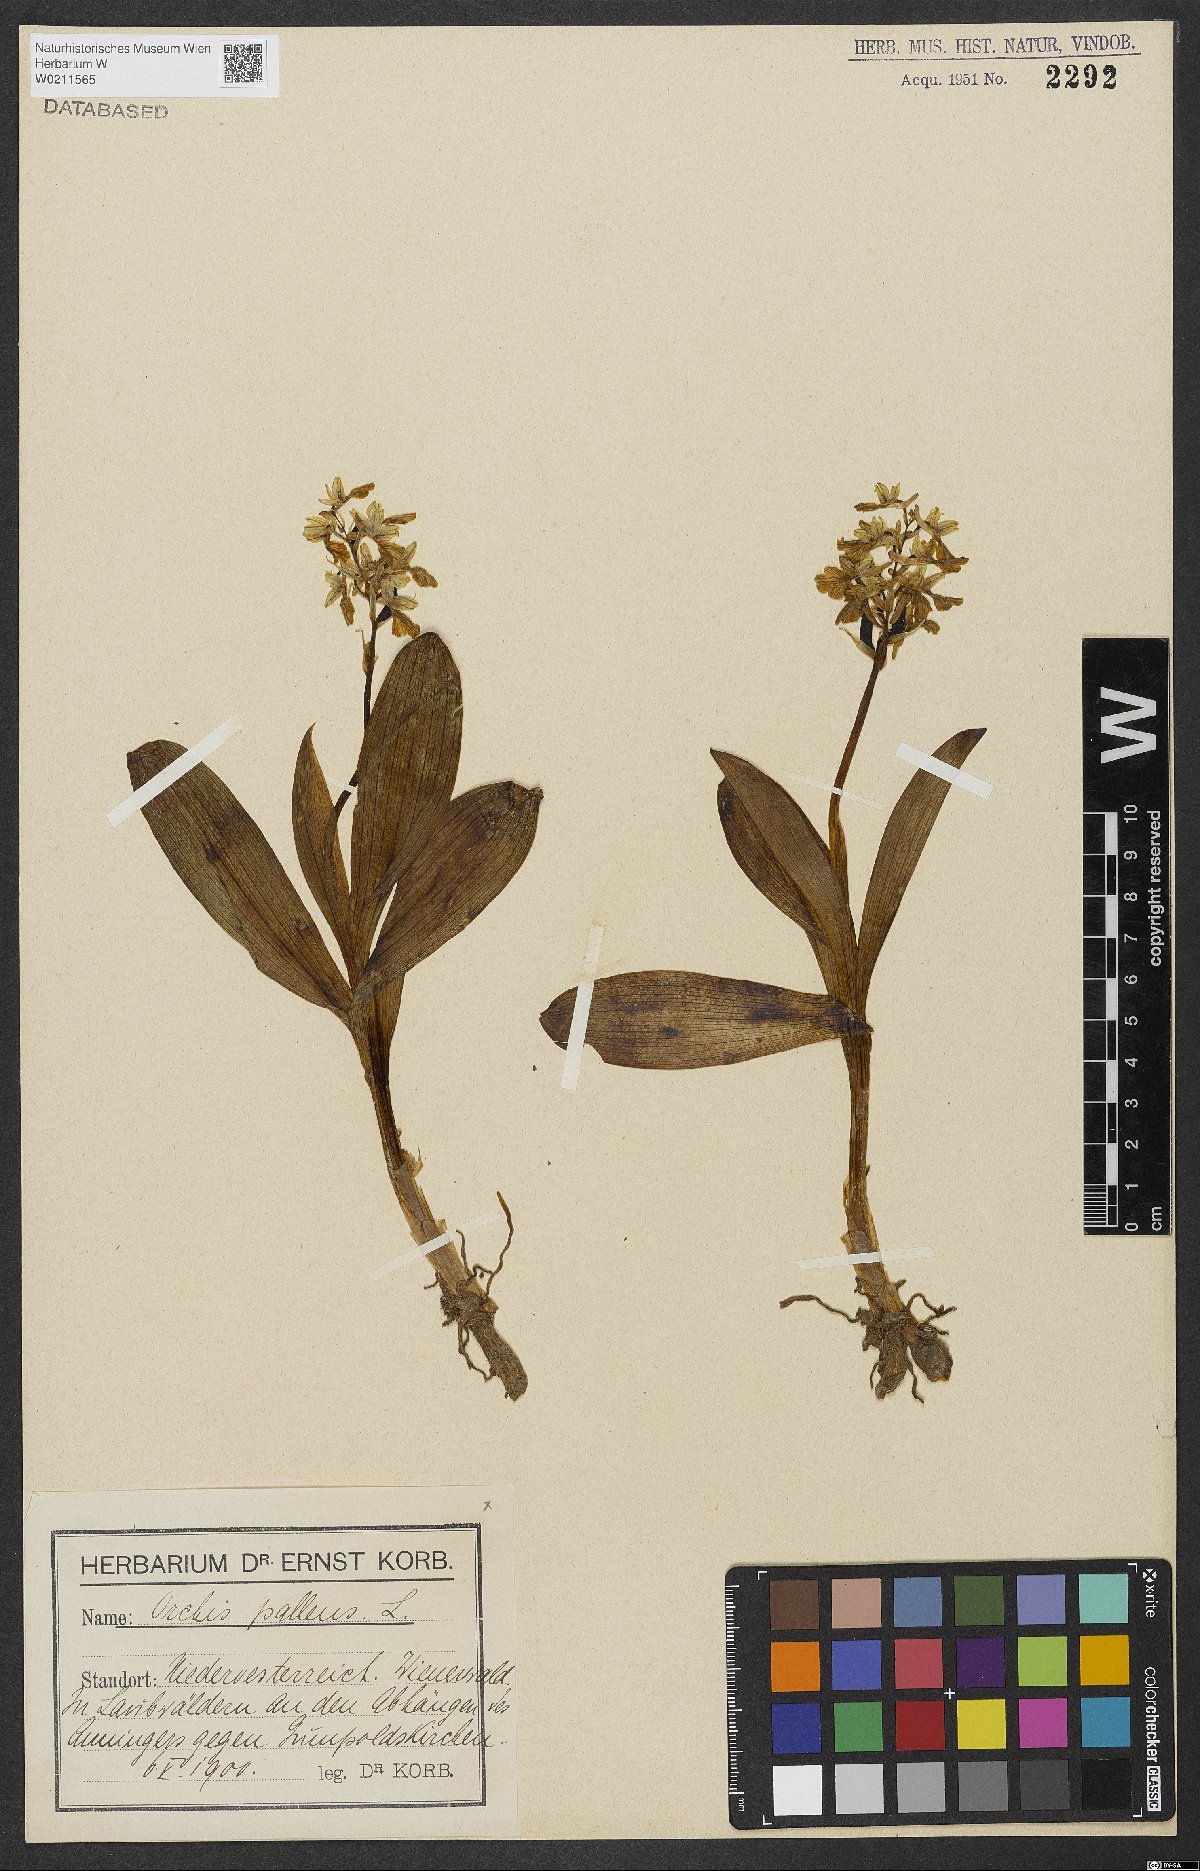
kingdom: Plantae
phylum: Tracheophyta
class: Liliopsida
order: Asparagales
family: Orchidaceae
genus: Orchis
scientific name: Orchis pallens
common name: Pale-flowered orchid
